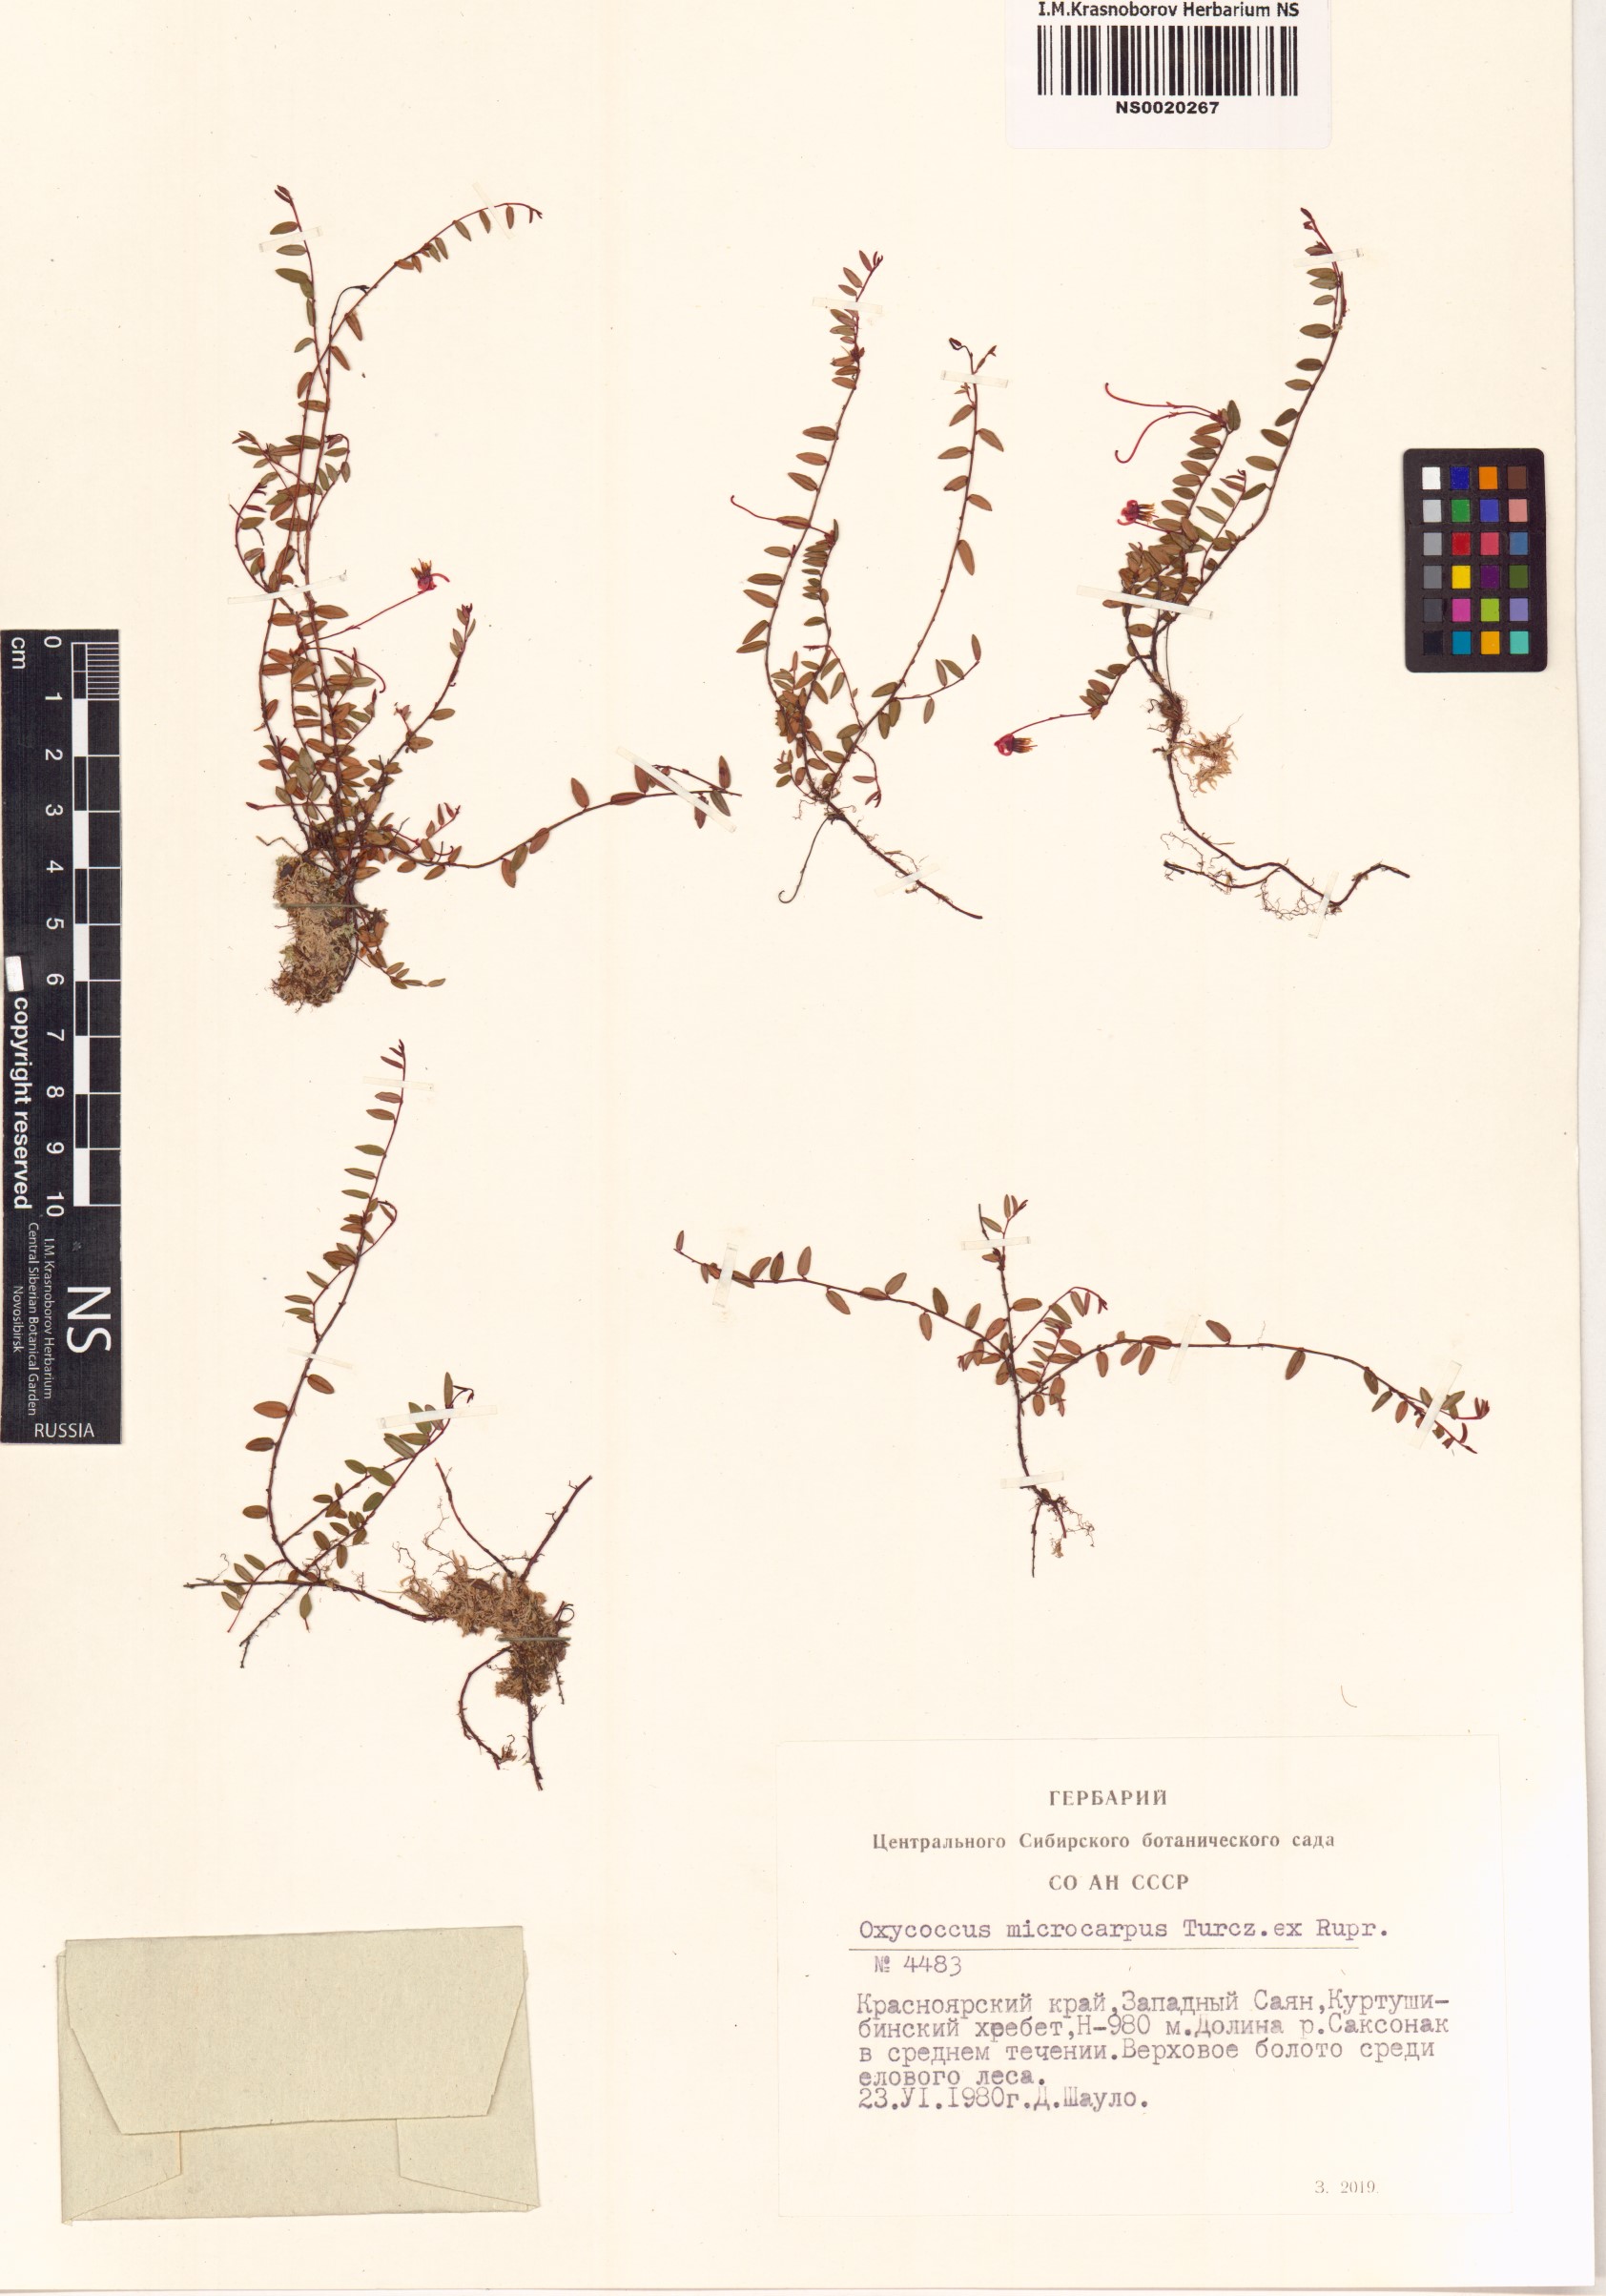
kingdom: Plantae
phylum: Tracheophyta
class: Magnoliopsida
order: Ericales
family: Ericaceae
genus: Vaccinium
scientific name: Vaccinium microcarpum
